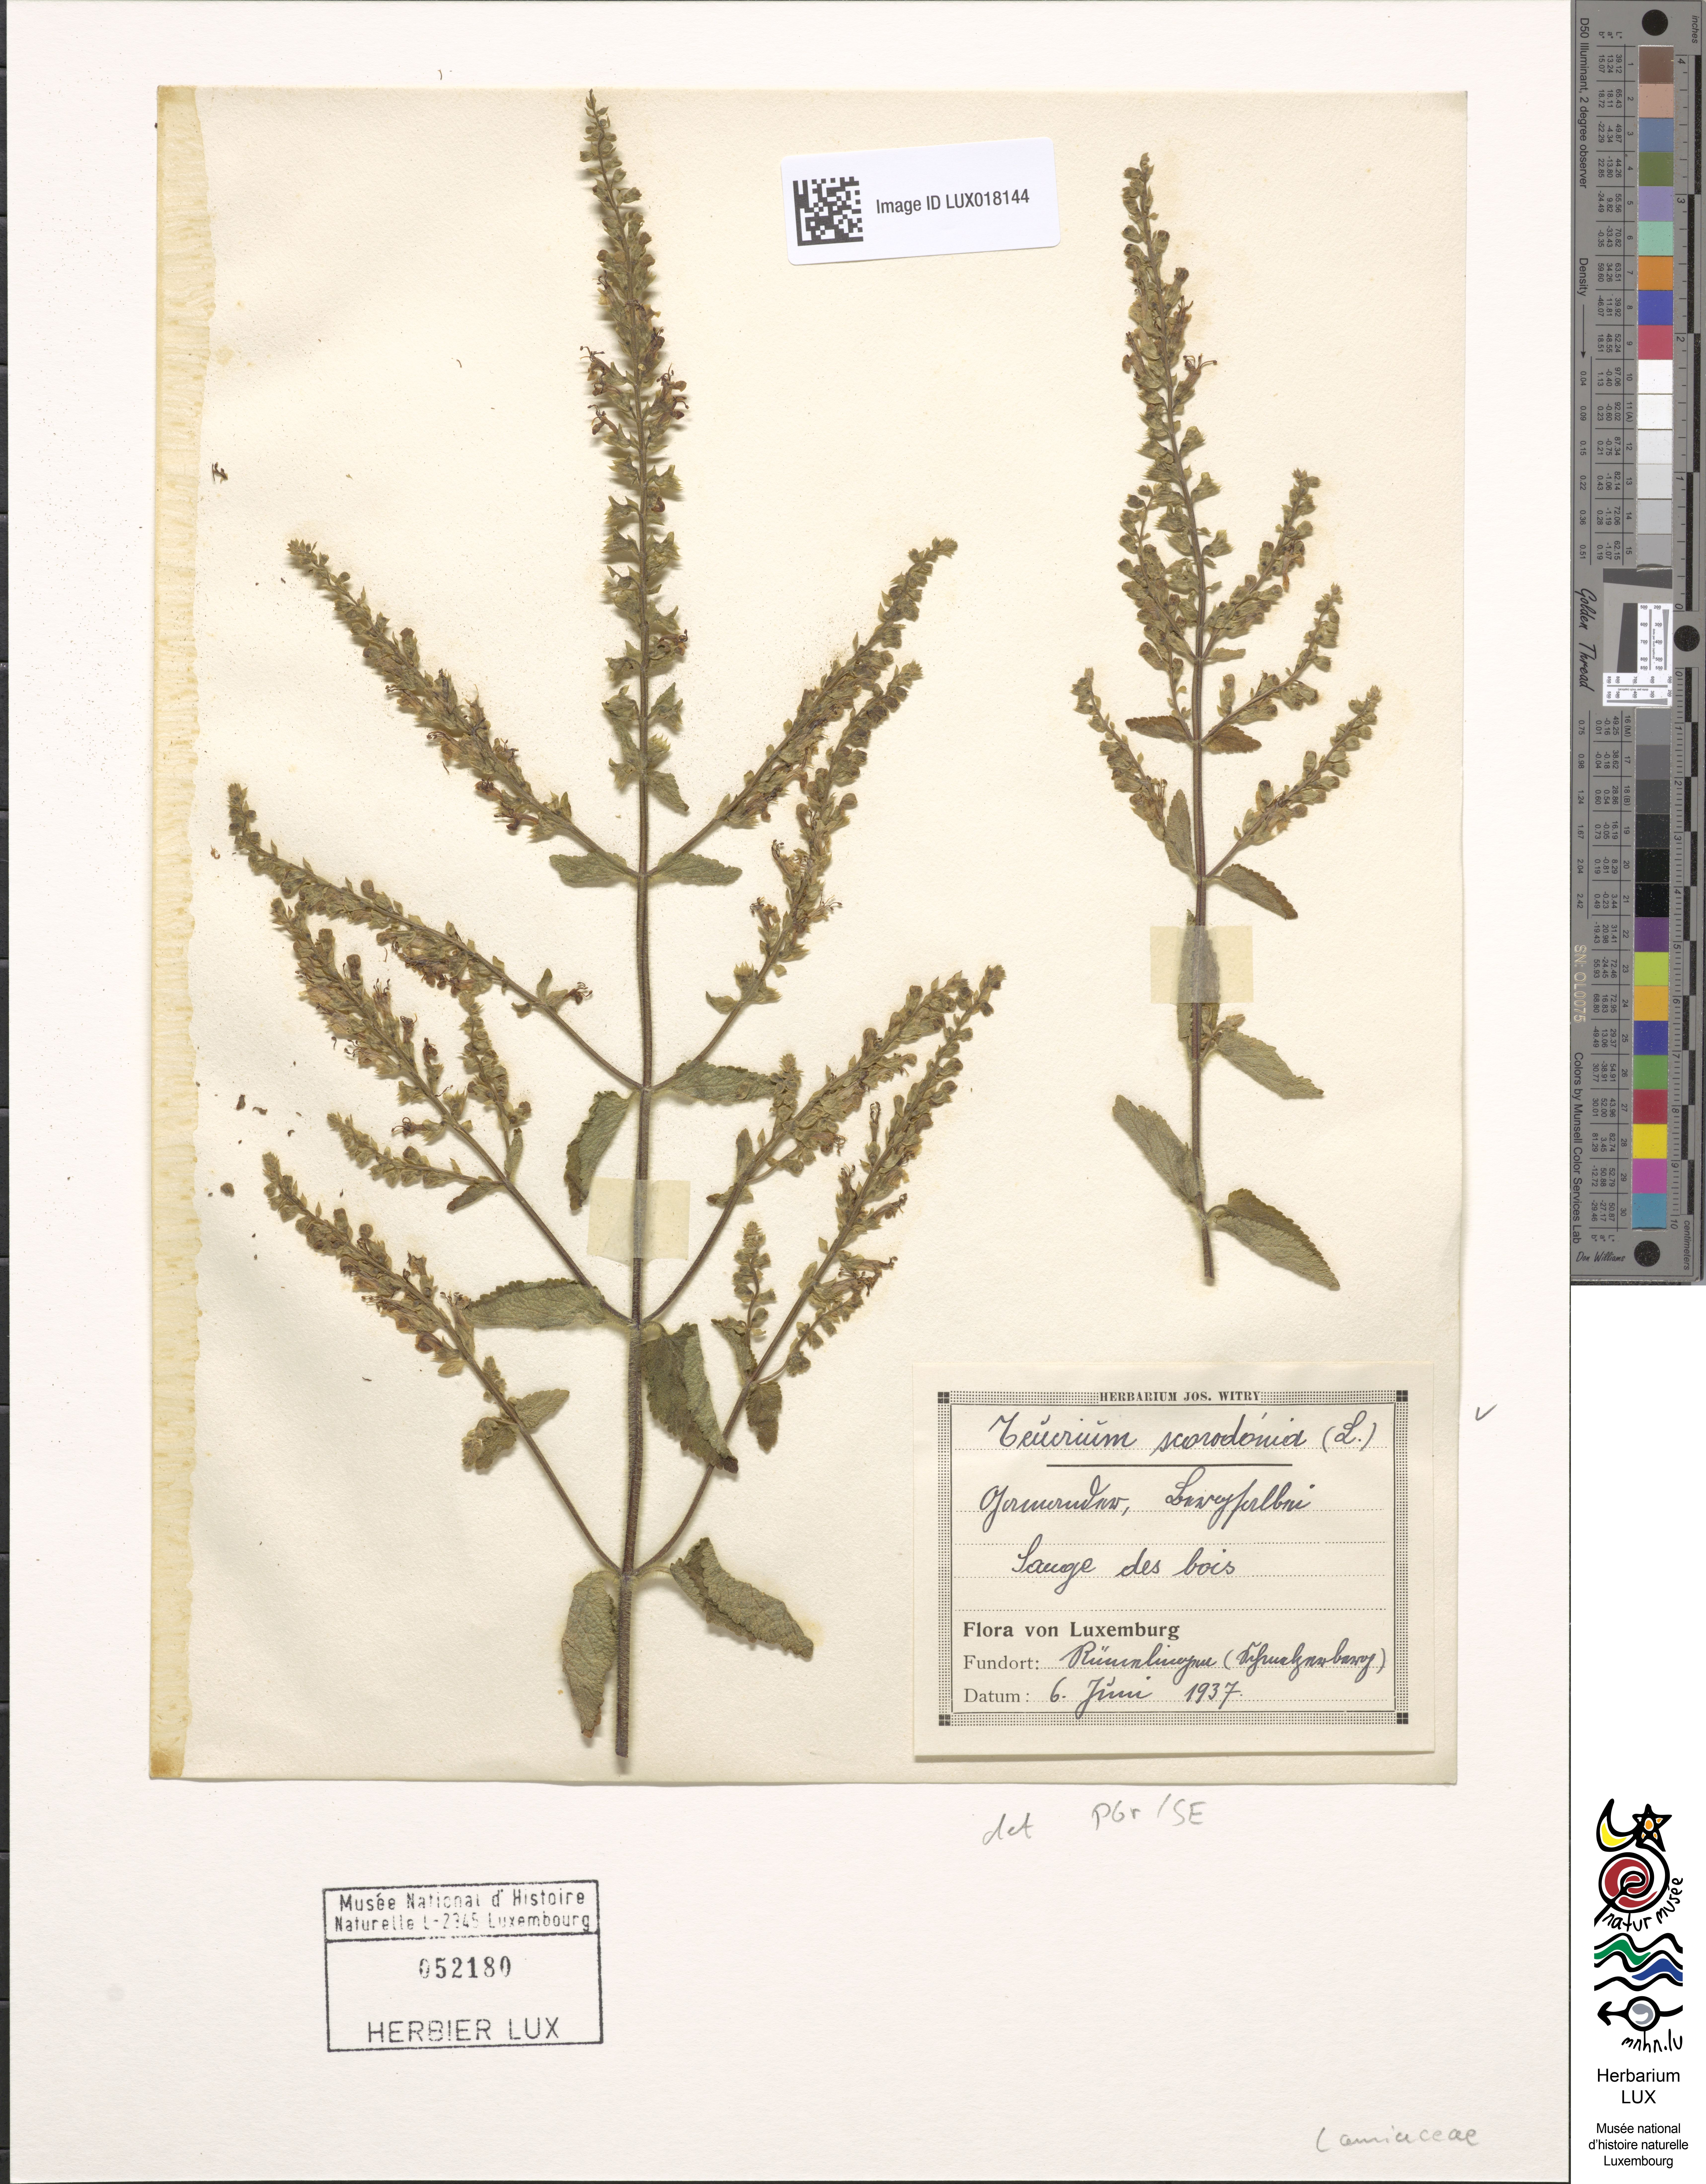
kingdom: Plantae
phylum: Tracheophyta
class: Magnoliopsida
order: Lamiales
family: Lamiaceae
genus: Teucrium
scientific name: Teucrium scorodonia
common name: Woodland germander
